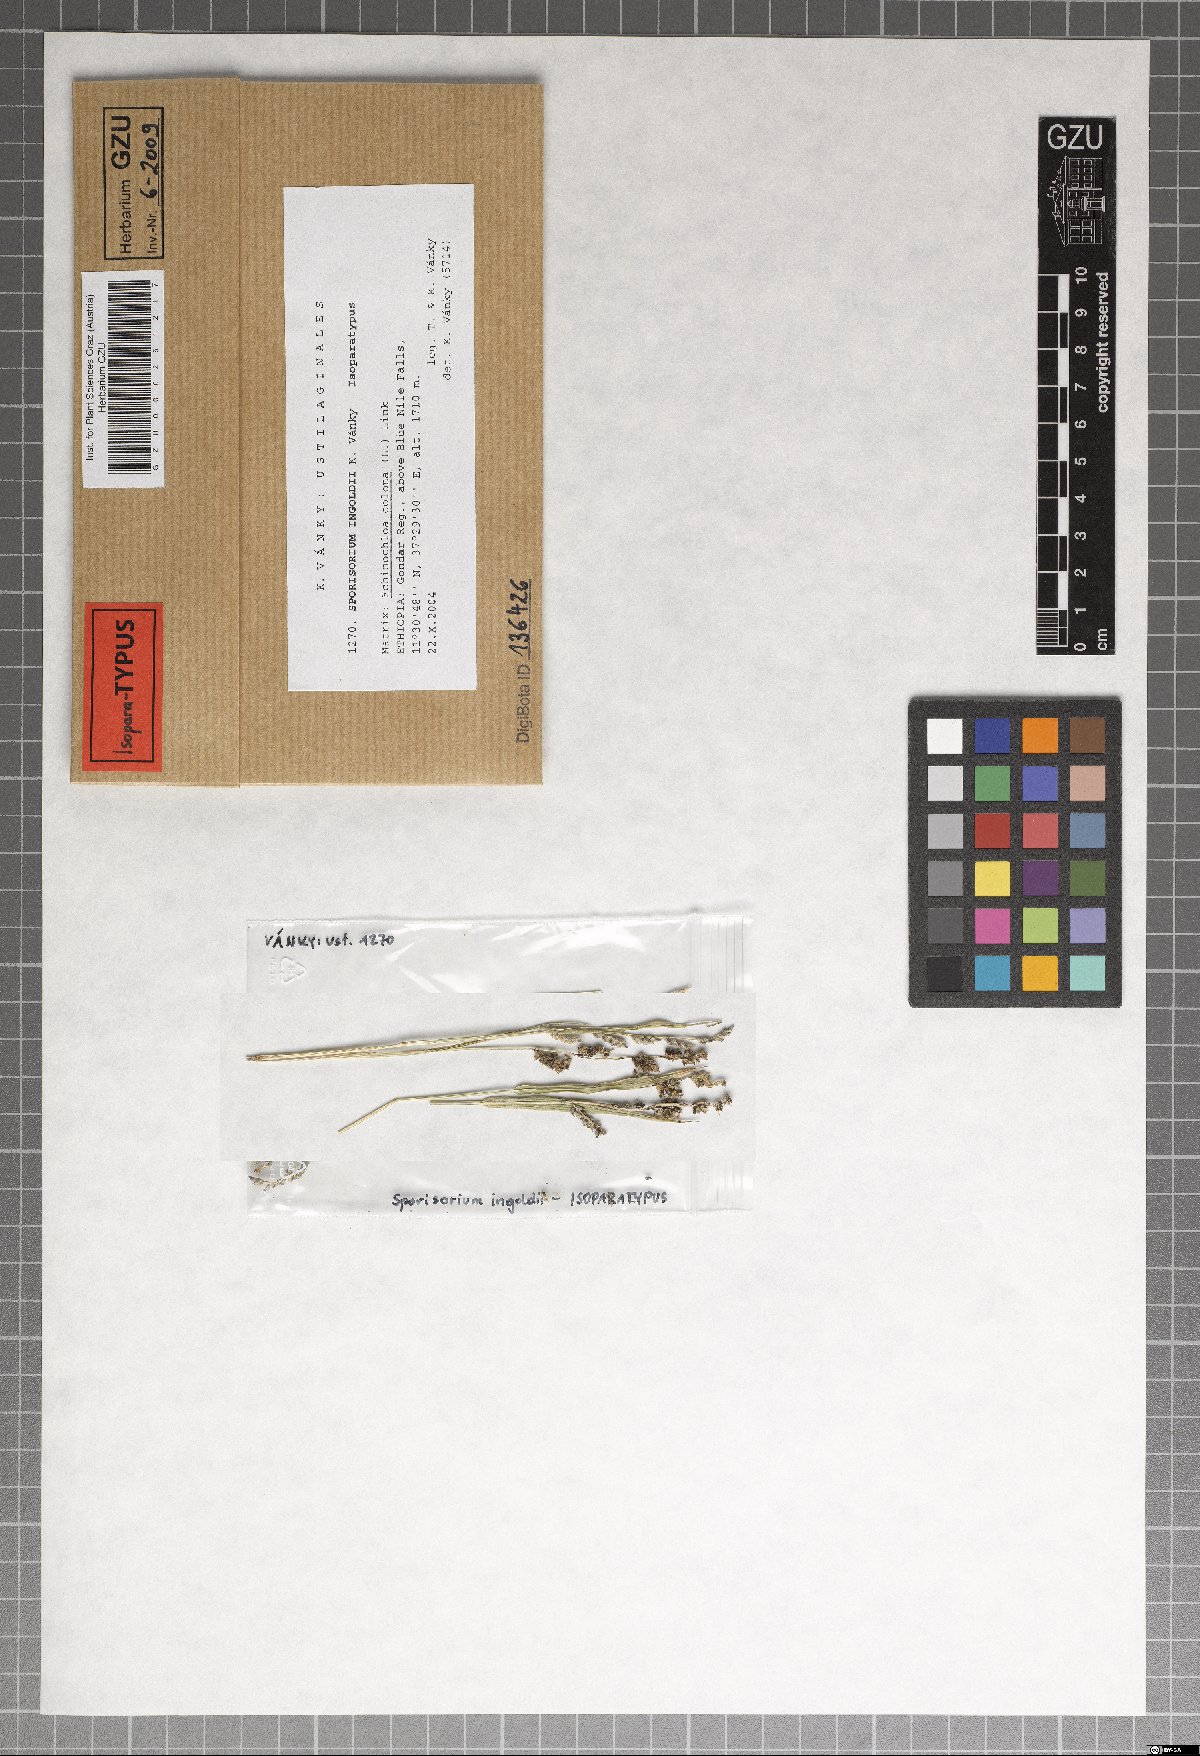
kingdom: Fungi
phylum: Basidiomycota
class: Ustilaginomycetes
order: Ustilaginales
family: Ustilaginaceae
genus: Sporisorium
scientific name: Sporisorium ingoldii
